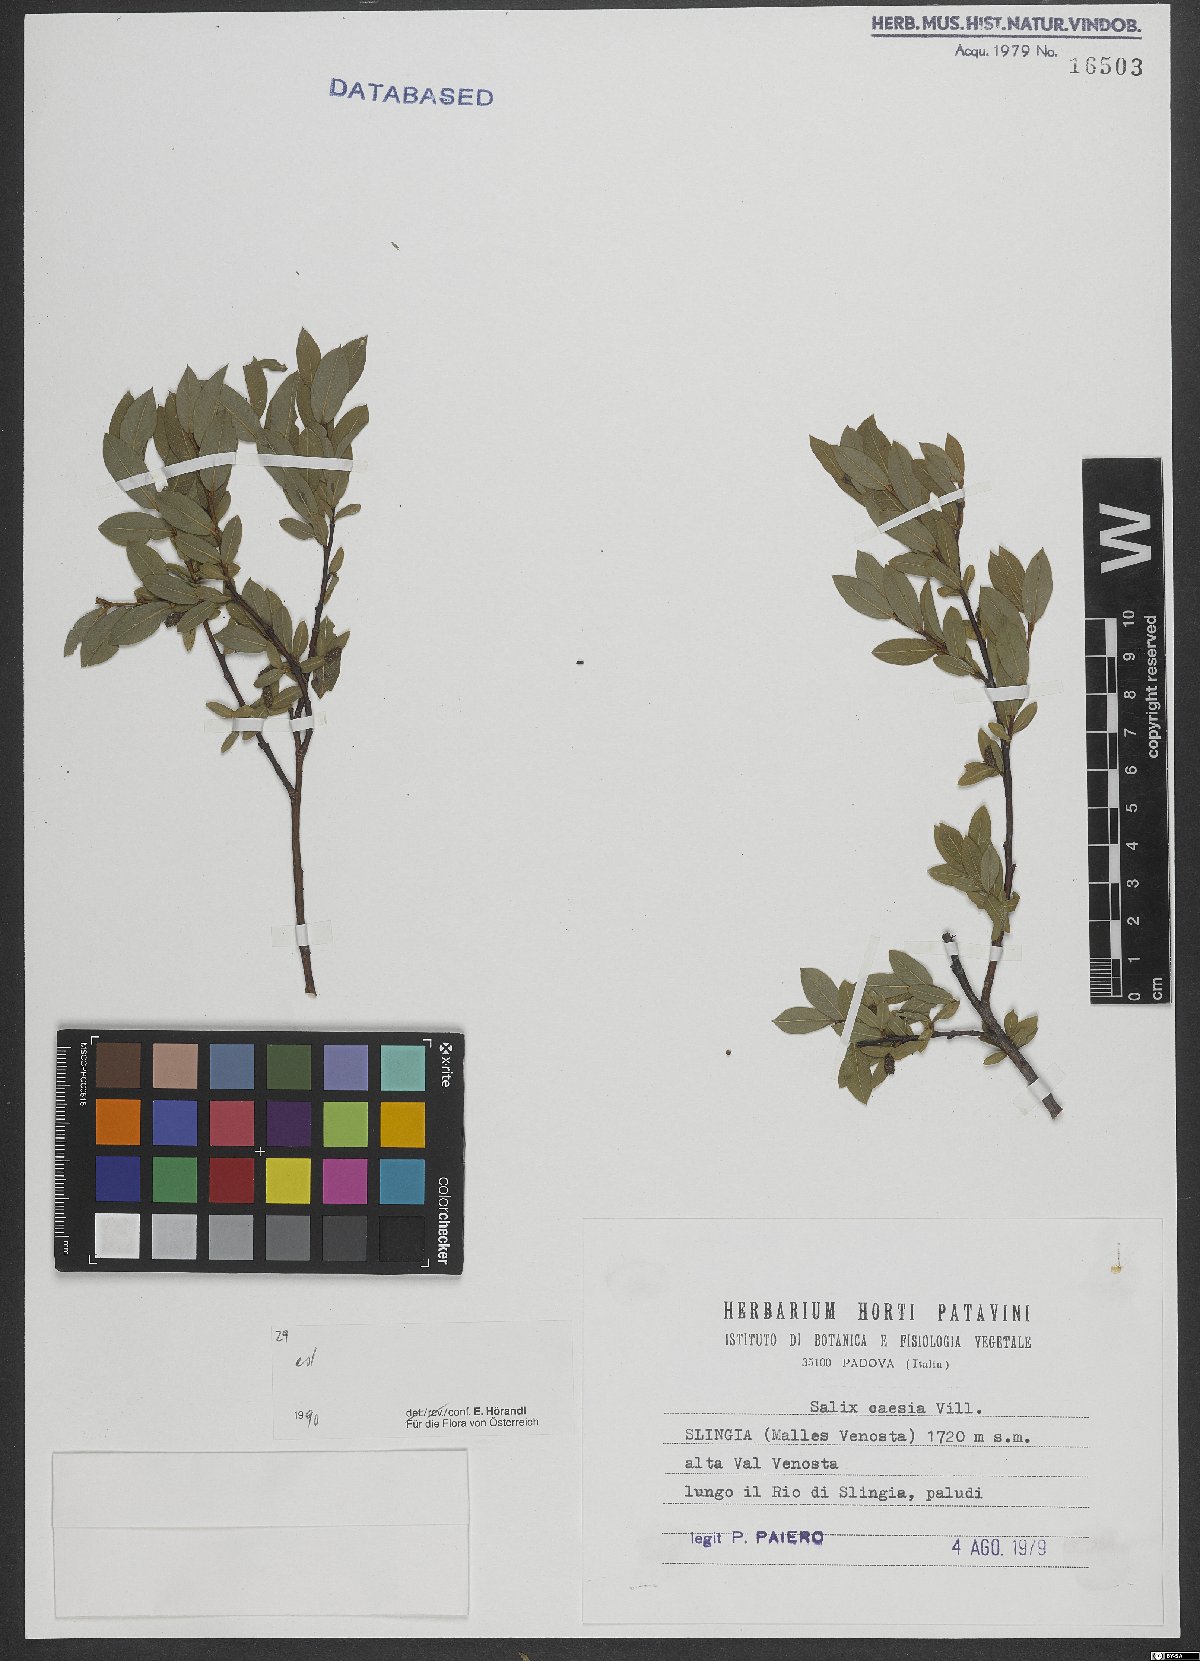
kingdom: Plantae
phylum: Tracheophyta
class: Magnoliopsida
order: Malpighiales
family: Salicaceae
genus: Salix
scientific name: Salix caesia
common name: Blue willow
